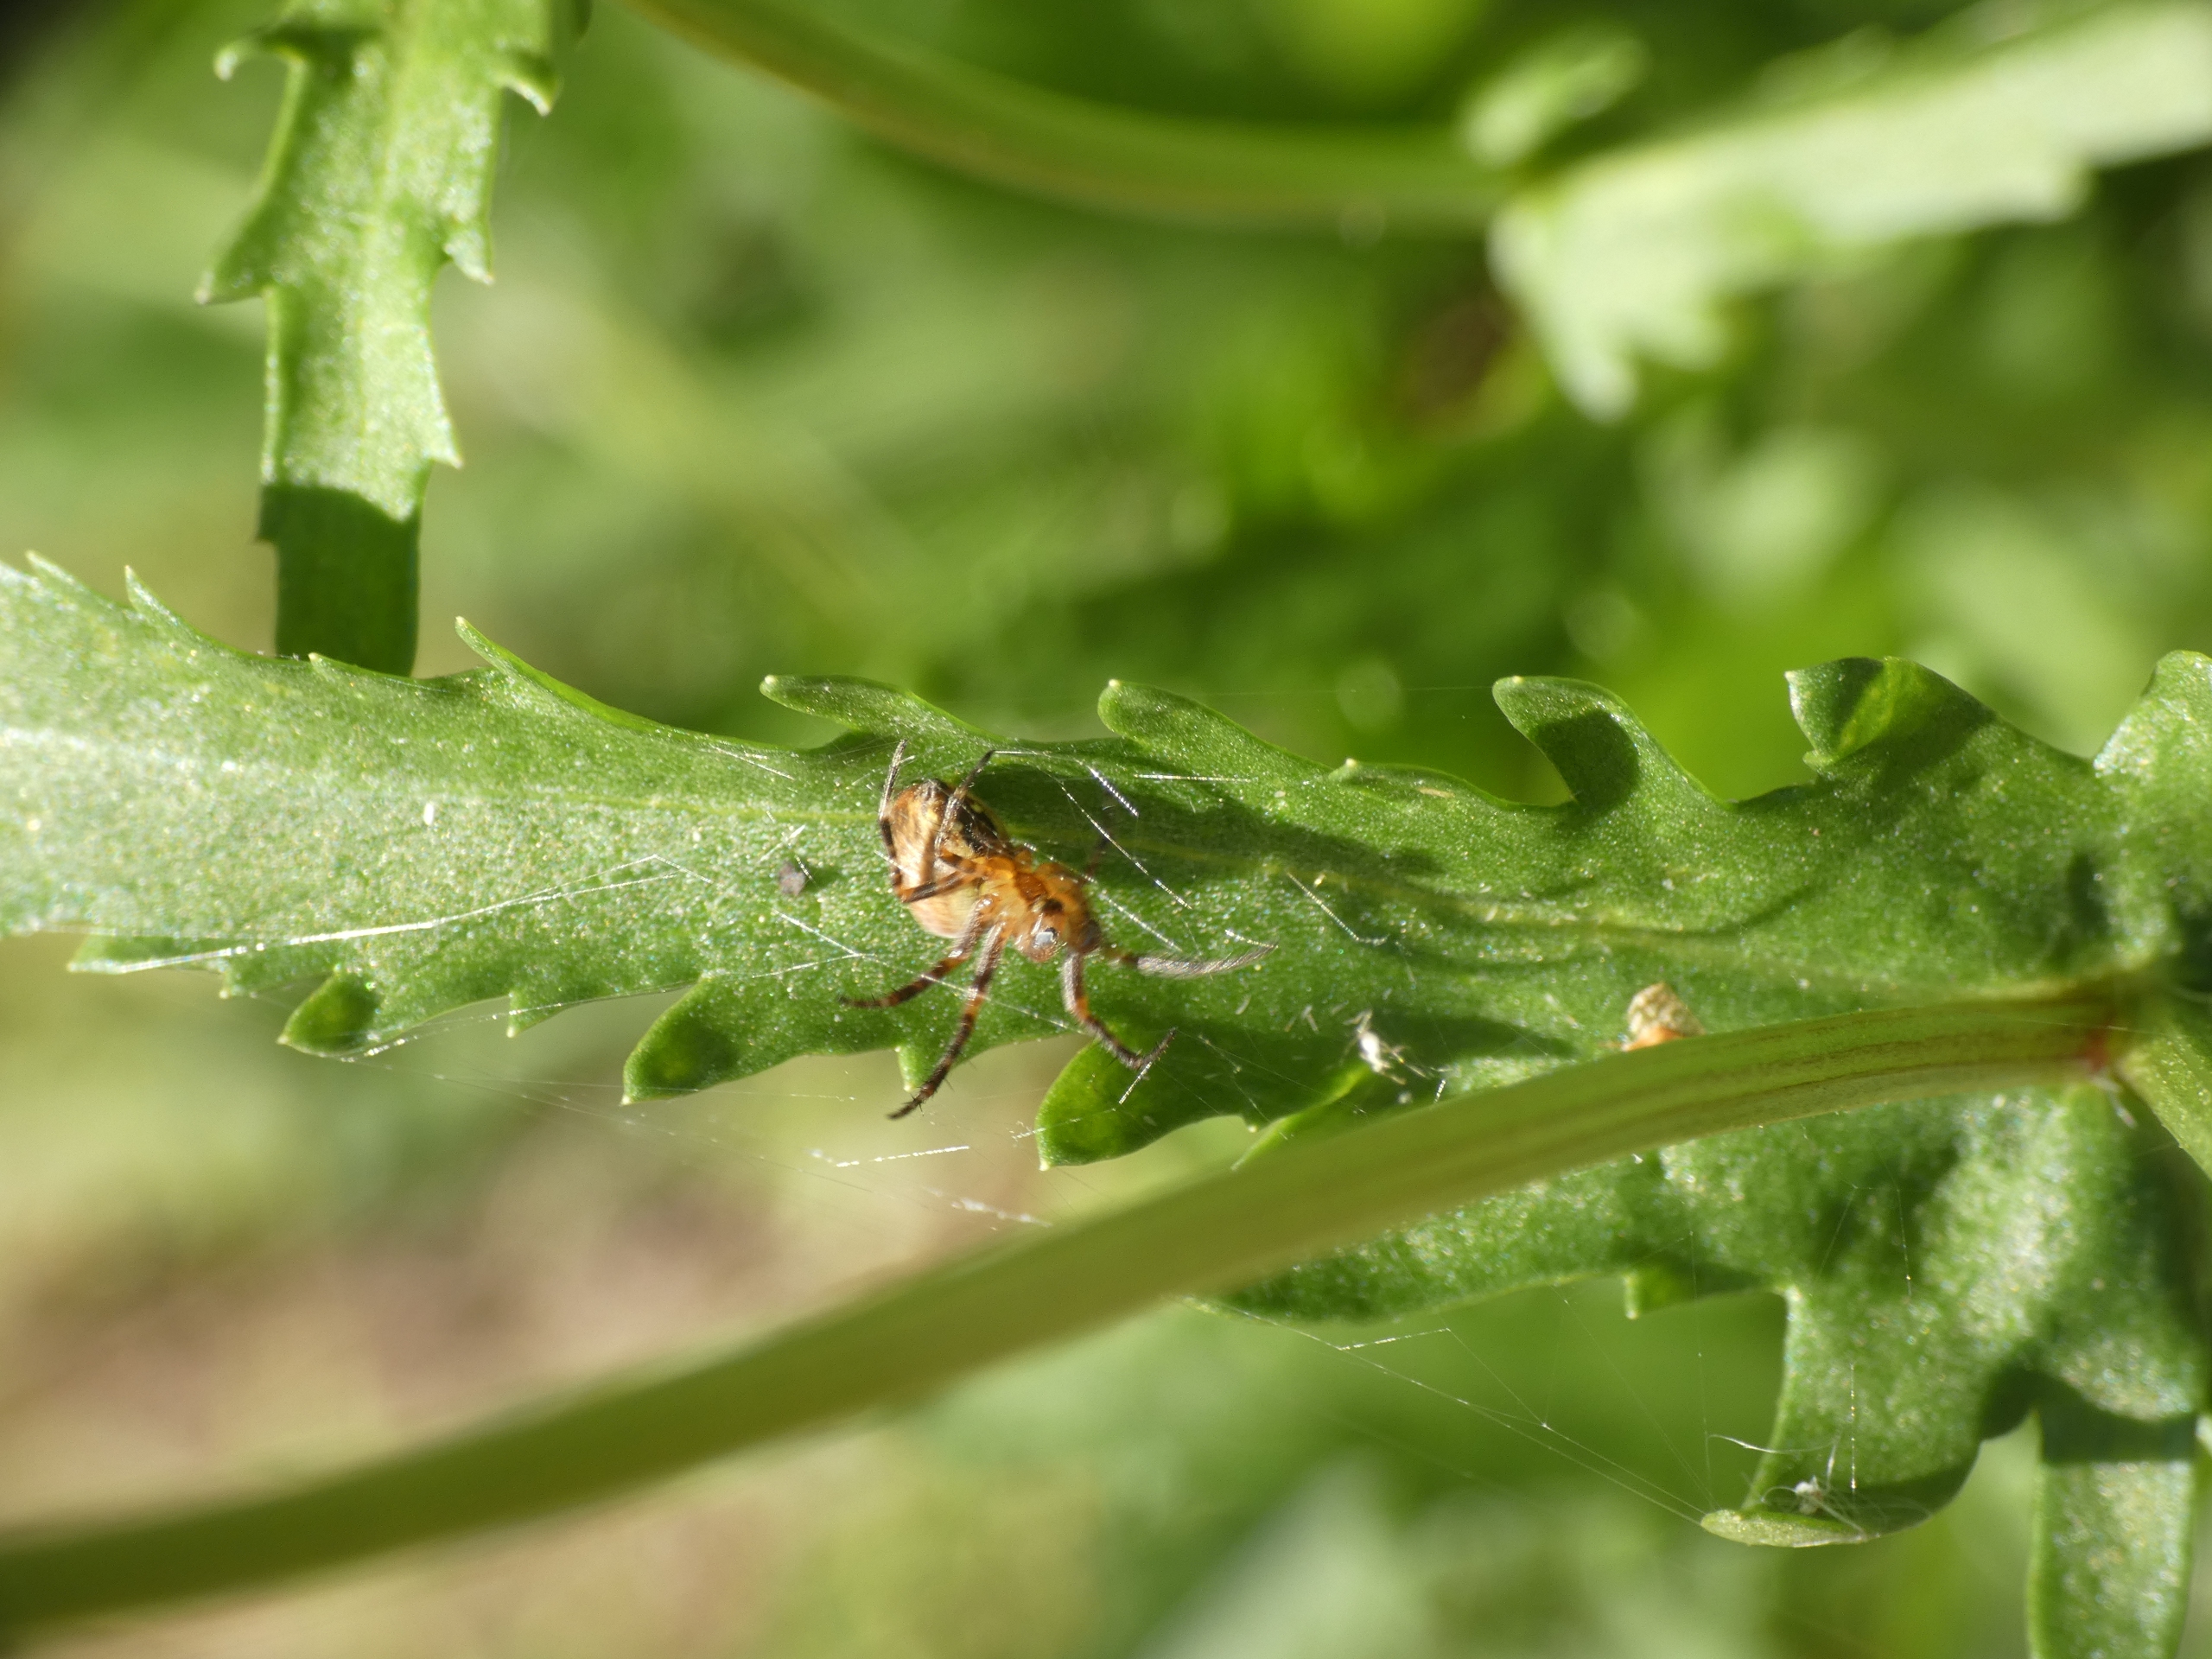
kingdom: Animalia
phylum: Arthropoda
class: Arachnida
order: Araneae
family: Araneidae
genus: Araneus
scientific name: Araneus diadematus
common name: Korsedderkop
